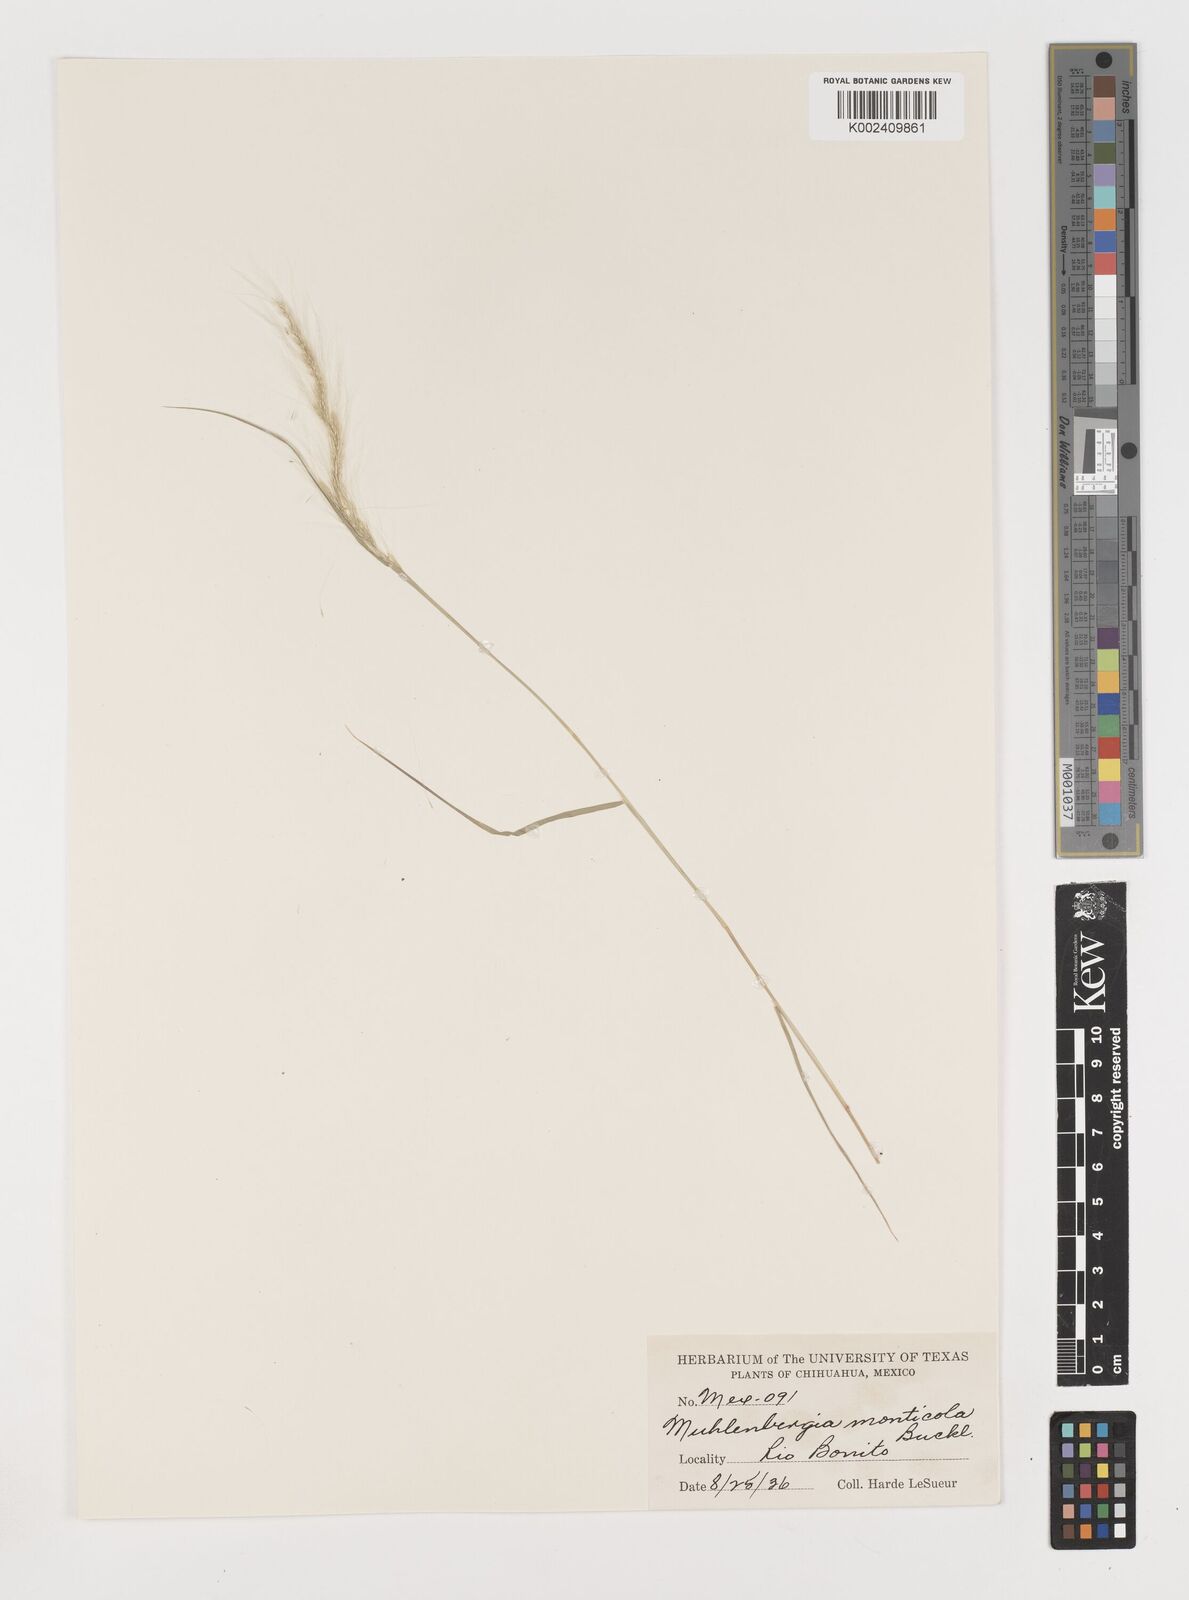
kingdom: Plantae
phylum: Tracheophyta
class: Liliopsida
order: Poales
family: Poaceae
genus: Muhlenbergia
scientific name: Muhlenbergia tenuifolia
